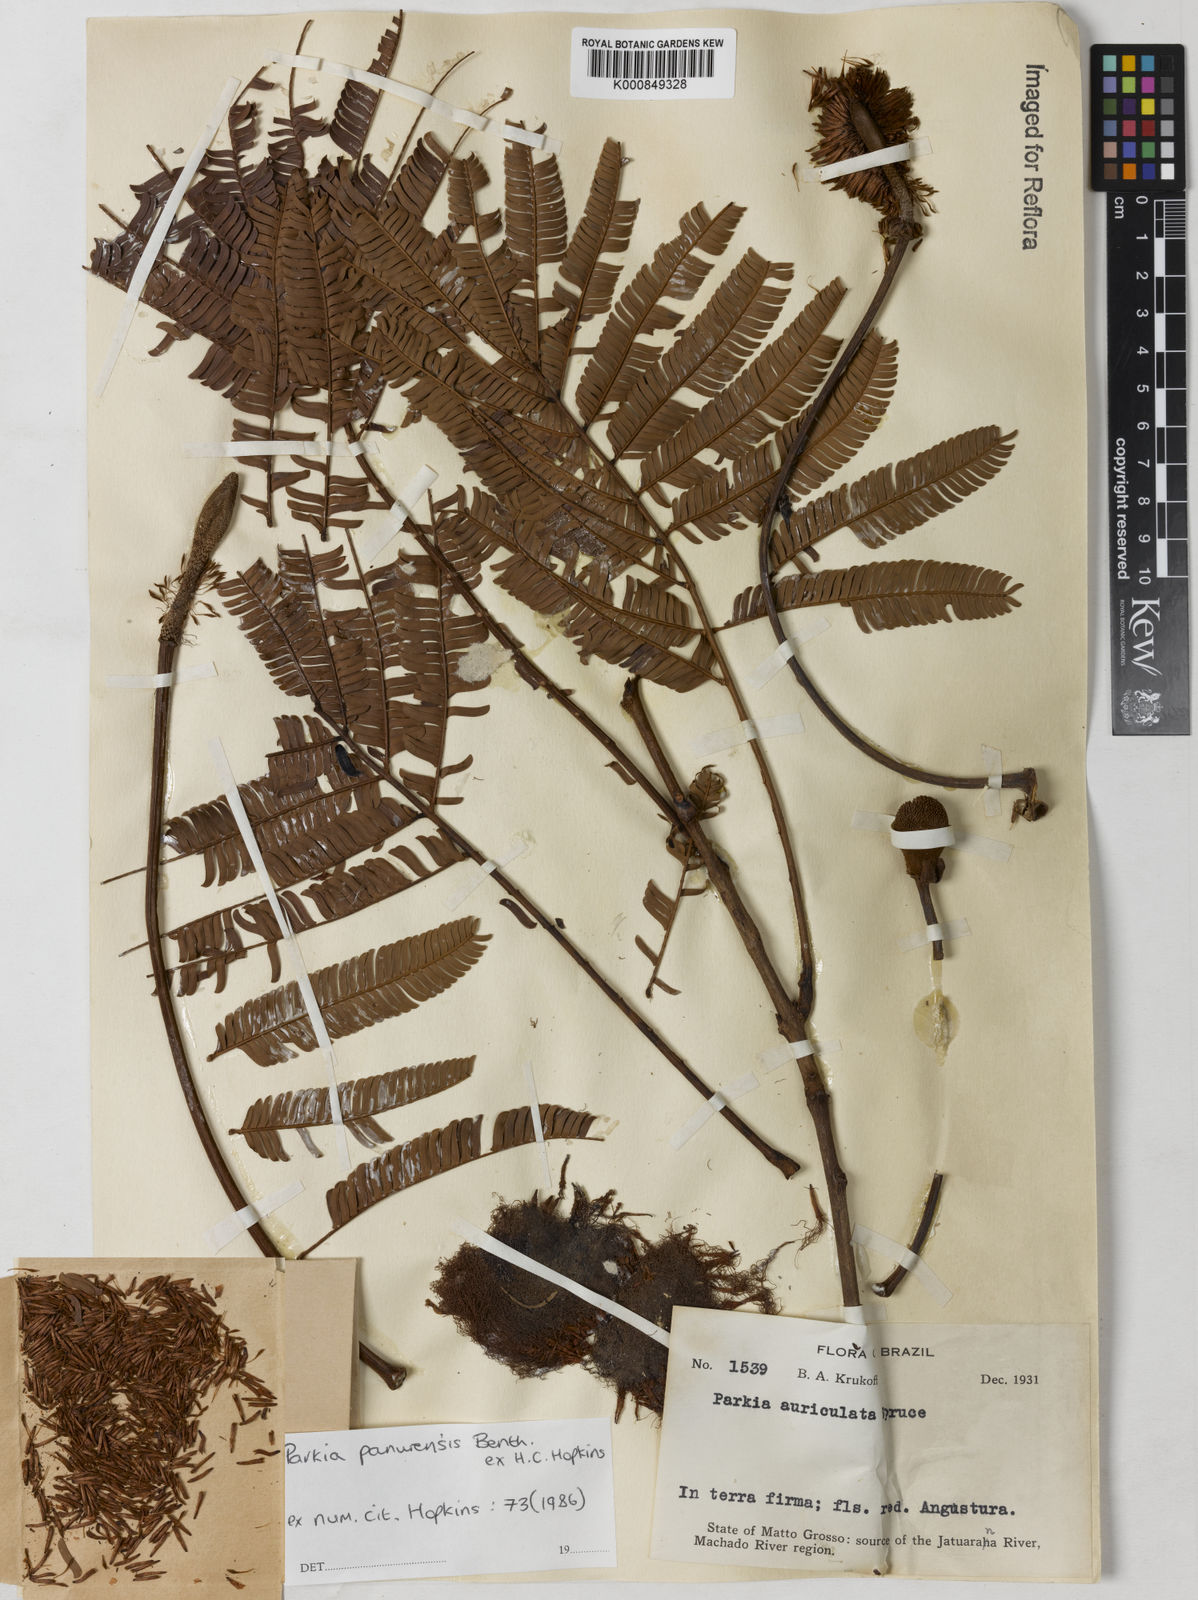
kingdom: Plantae
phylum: Tracheophyta
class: Magnoliopsida
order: Fabales
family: Fabaceae
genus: Parkia
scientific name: Parkia pectinata
